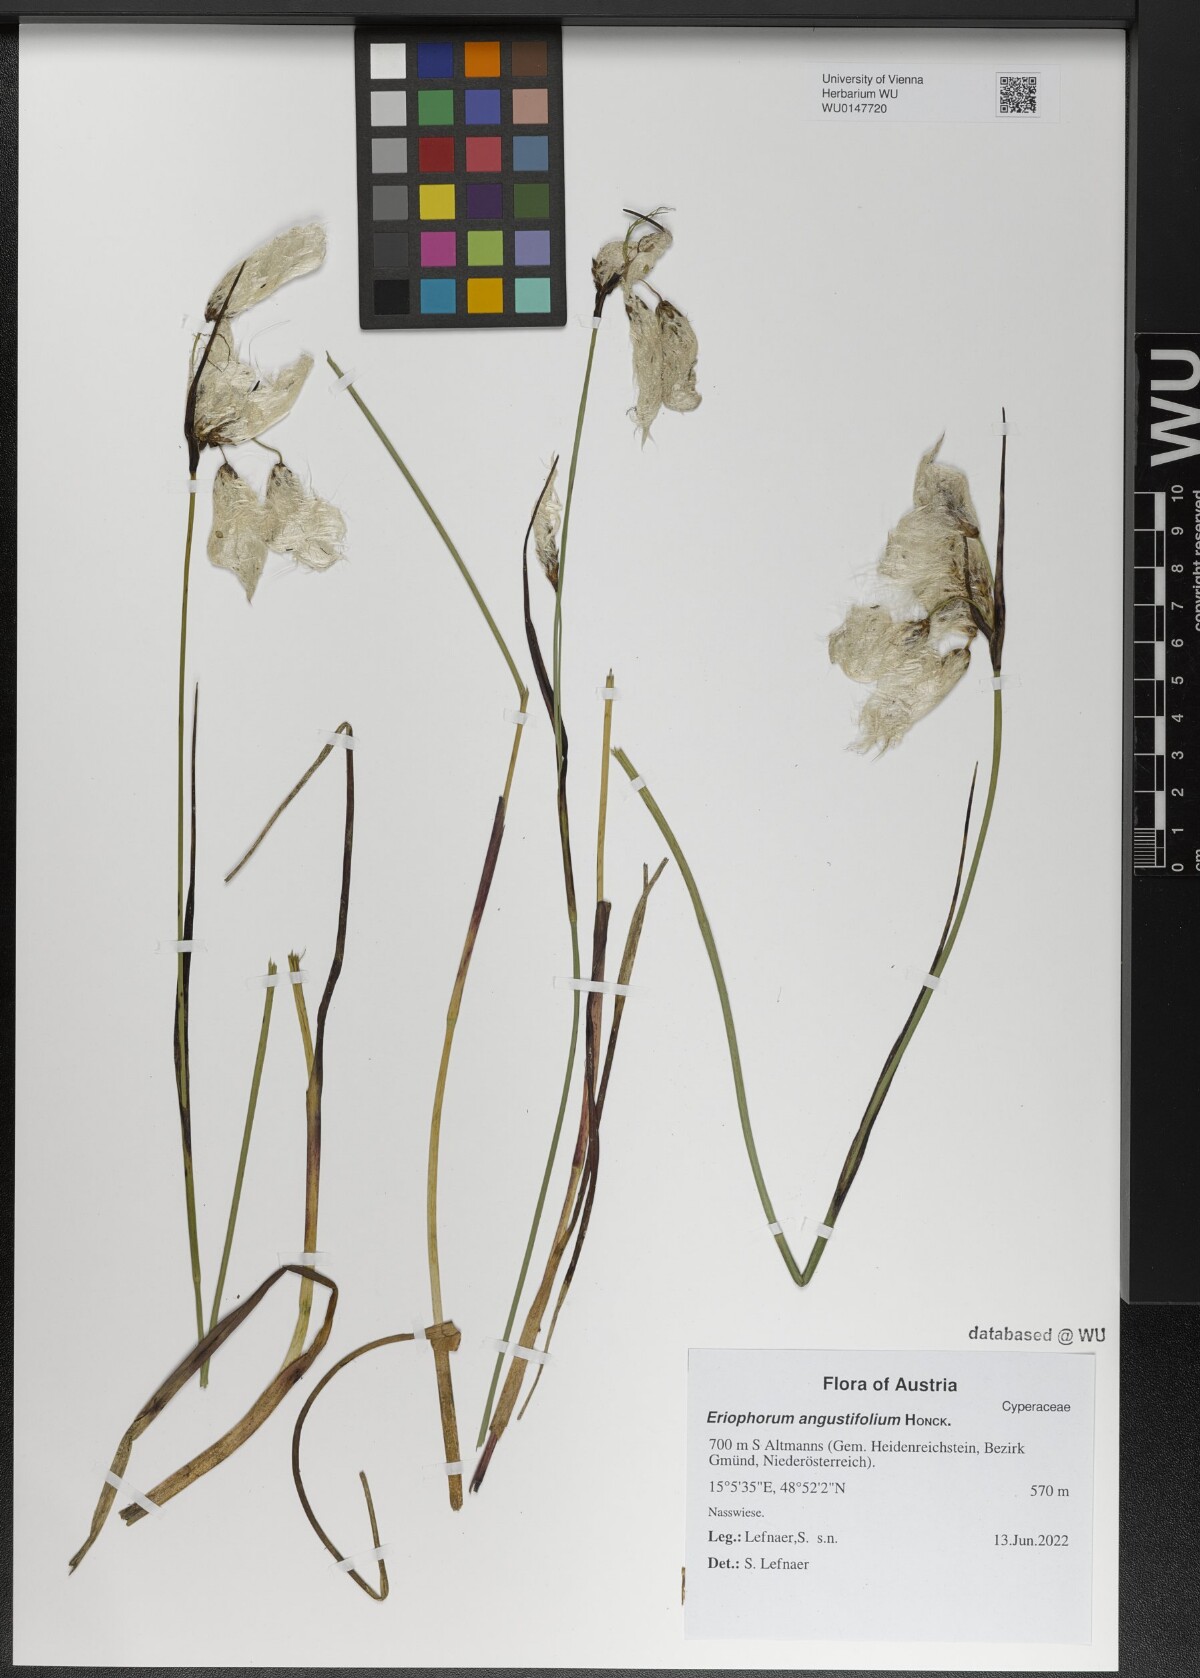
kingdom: Plantae
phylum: Tracheophyta
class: Liliopsida
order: Poales
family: Cyperaceae
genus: Eriophorum
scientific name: Eriophorum angustifolium
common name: Common cottongrass
